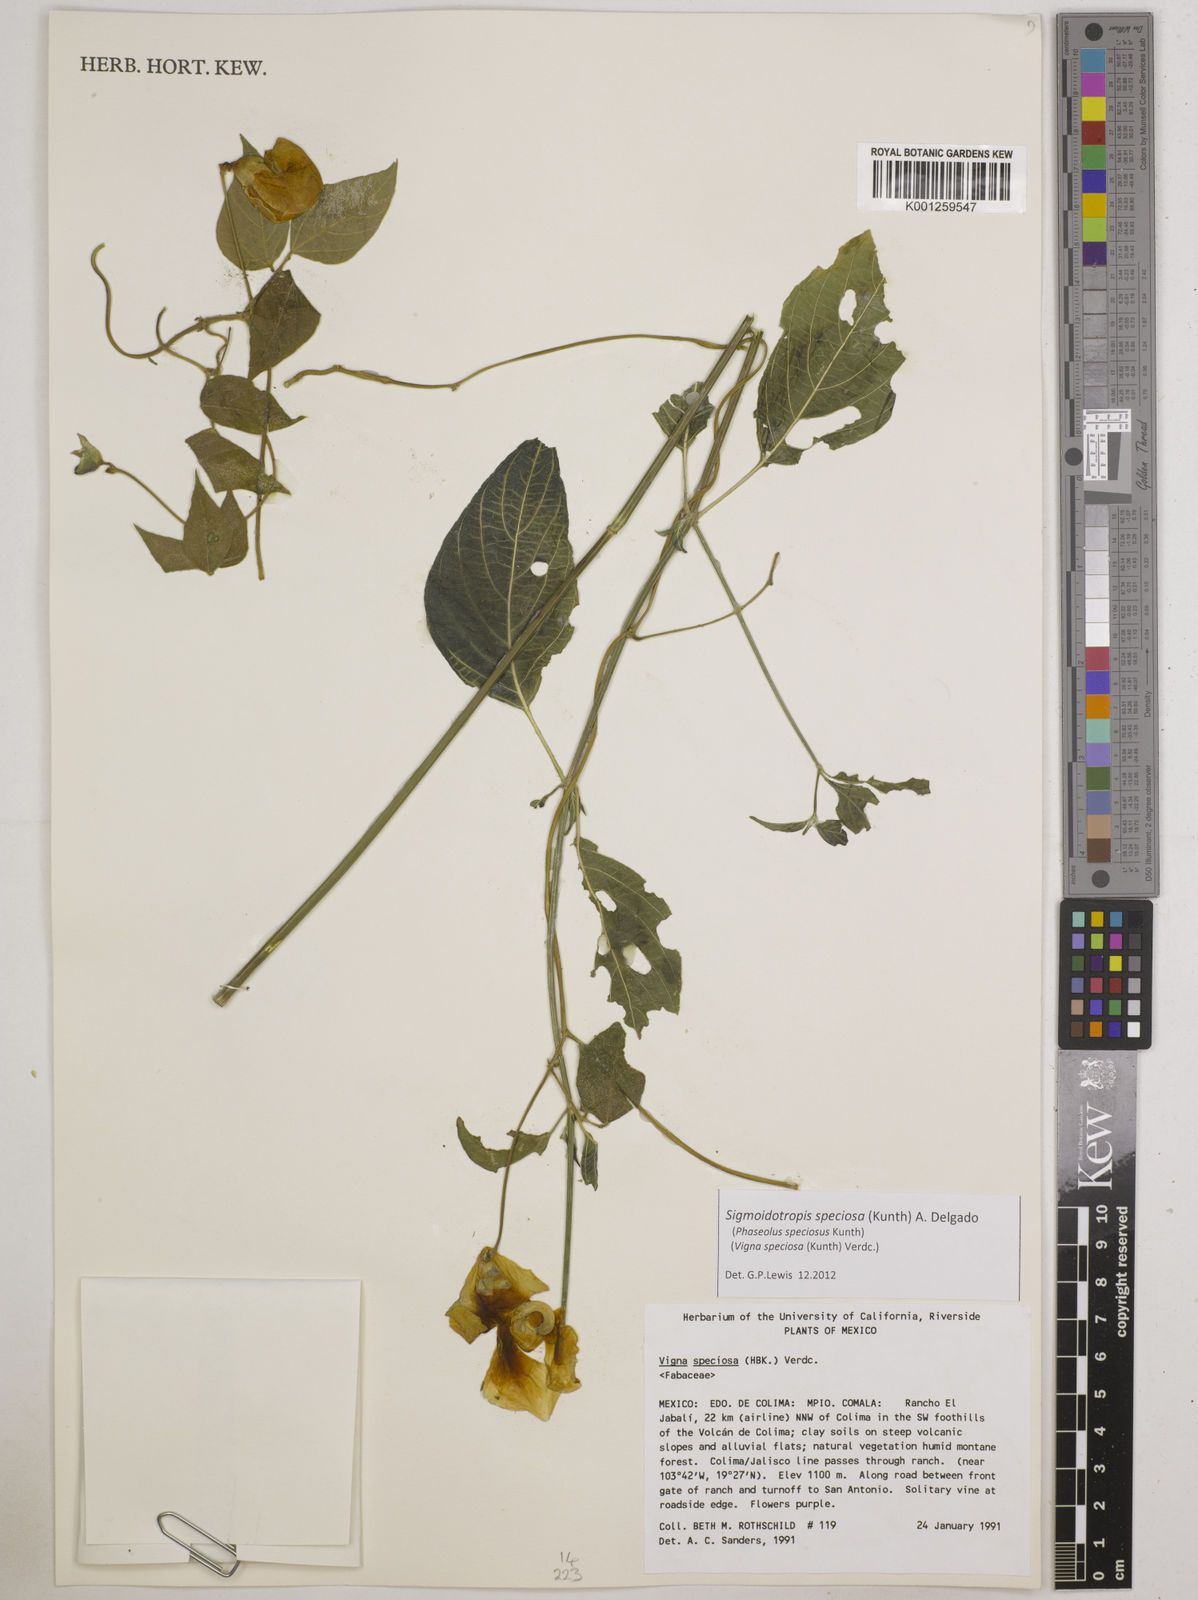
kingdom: Plantae
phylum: Tracheophyta
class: Magnoliopsida
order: Fabales
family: Fabaceae
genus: Sigmoidotropis
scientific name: Sigmoidotropis speciosa
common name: Snail flower
